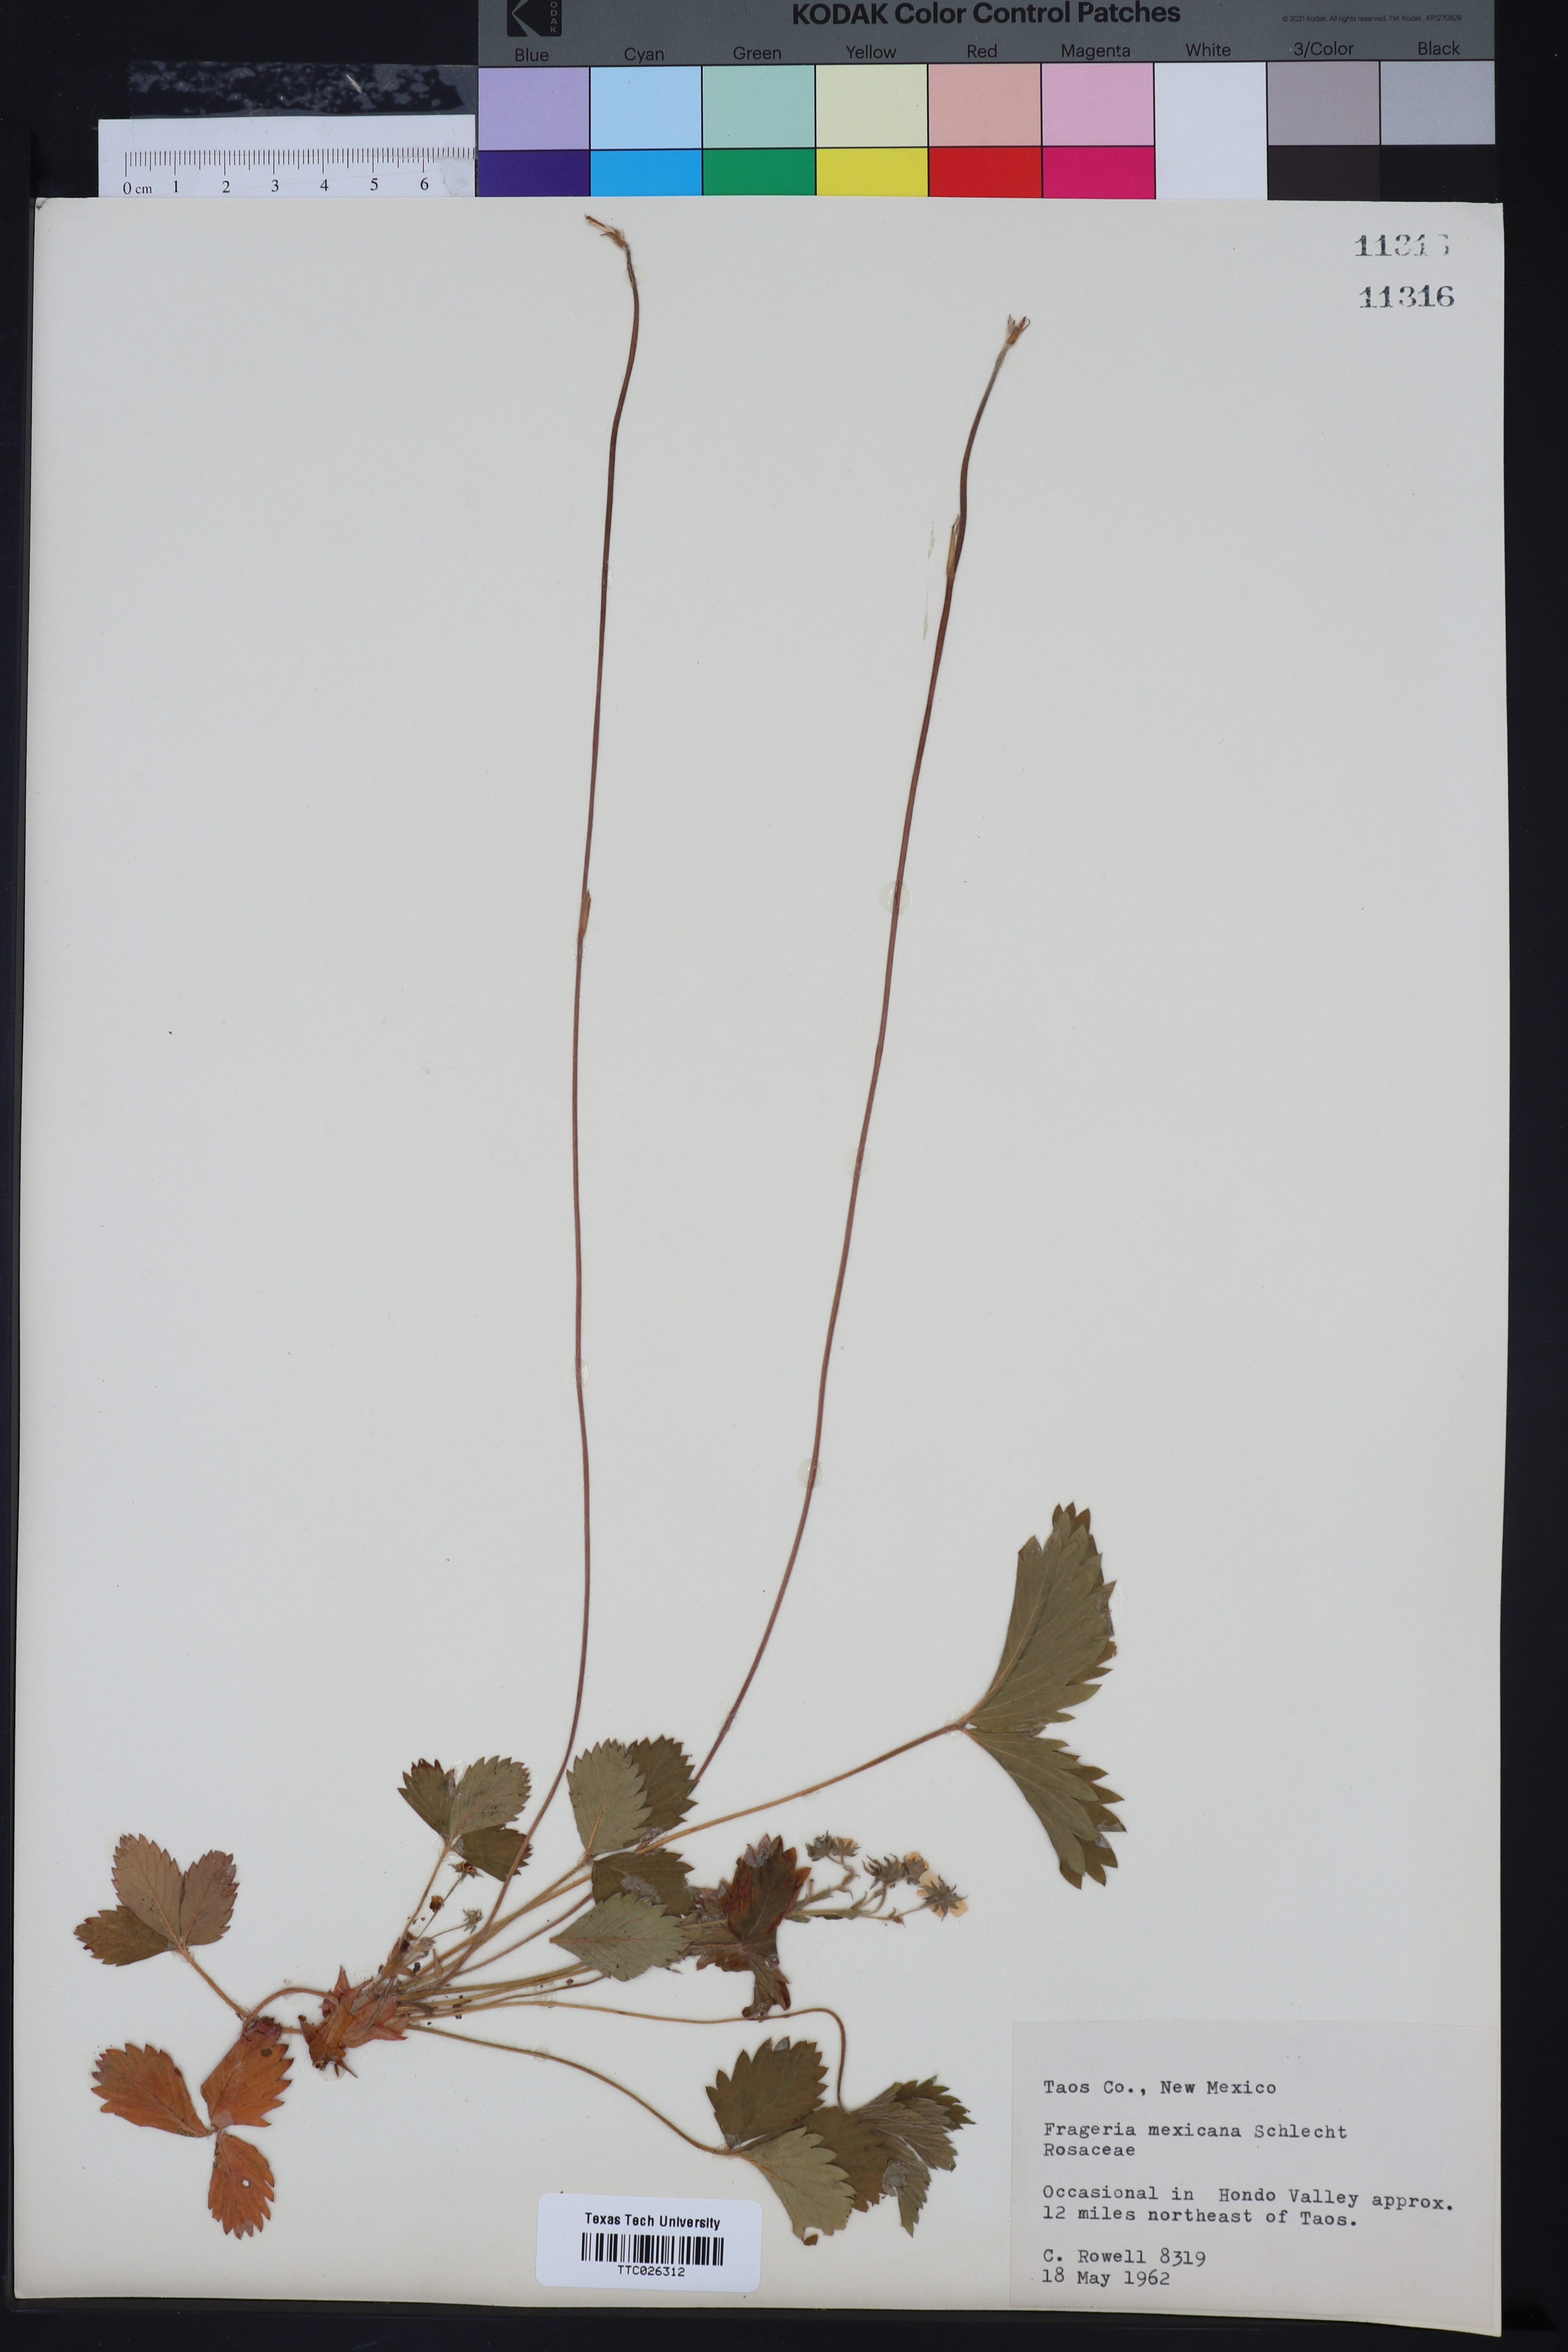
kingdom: Plantae
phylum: Tracheophyta
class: Magnoliopsida
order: Rosales
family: Rosaceae
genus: Fragaria
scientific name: Fragaria vesca
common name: Wild strawberry
